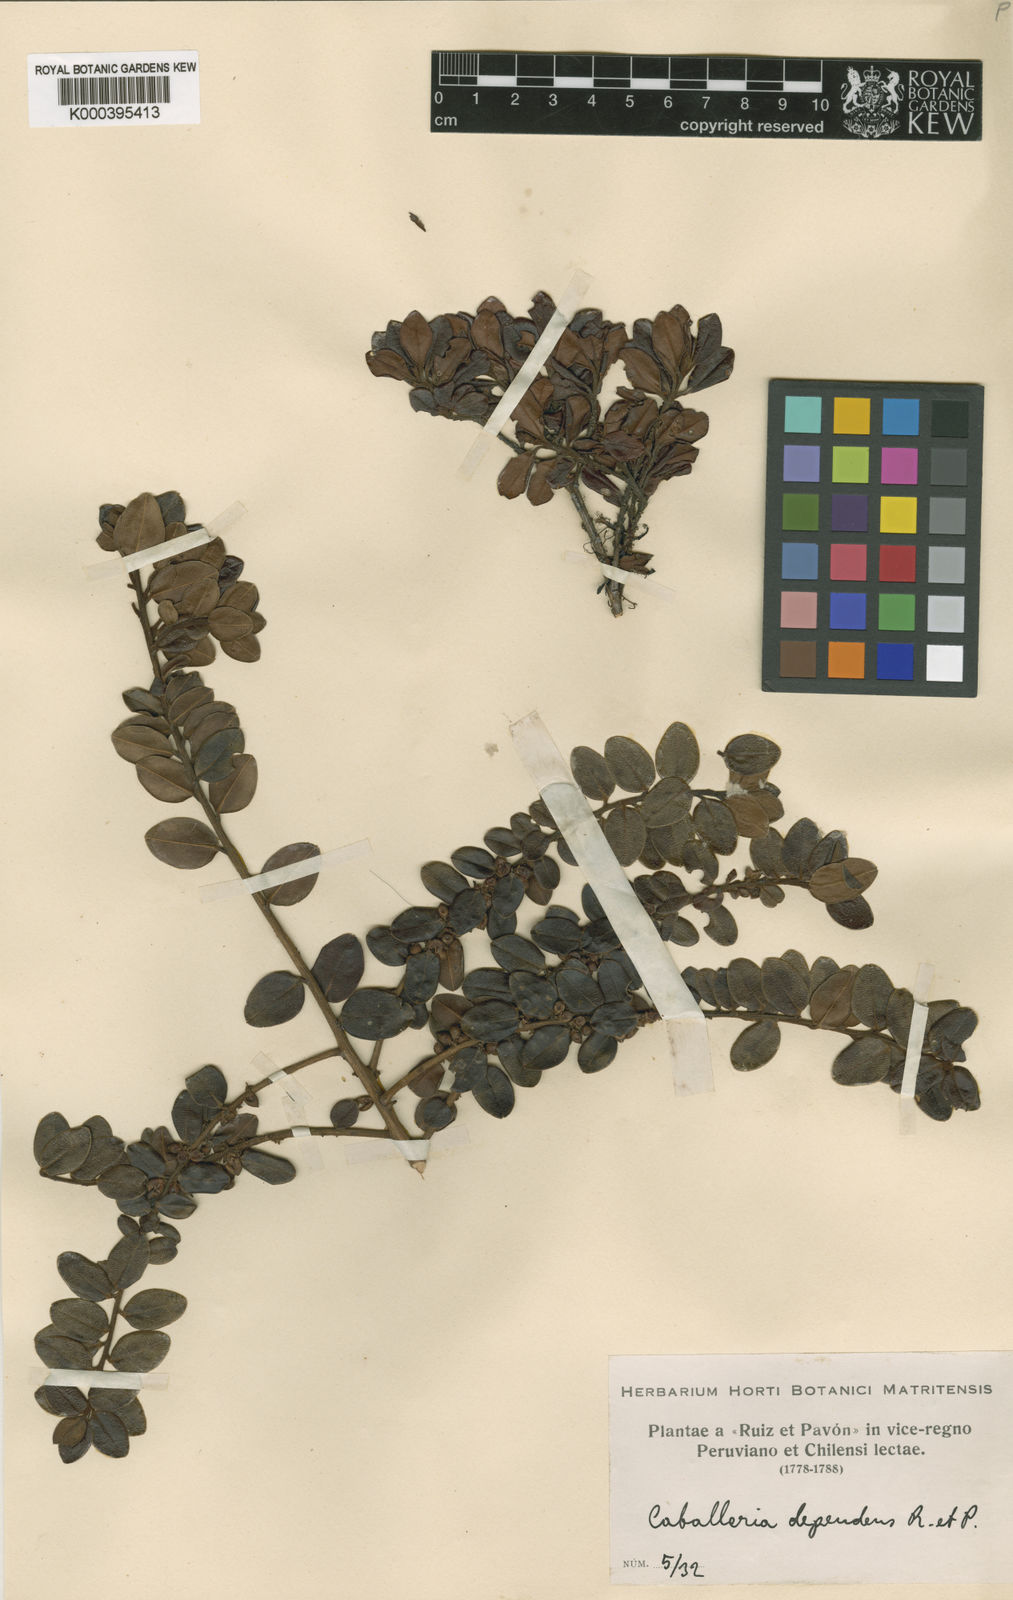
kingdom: Plantae
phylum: Tracheophyta
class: Magnoliopsida
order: Ericales
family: Primulaceae
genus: Myrsine
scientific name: Myrsine dependens
